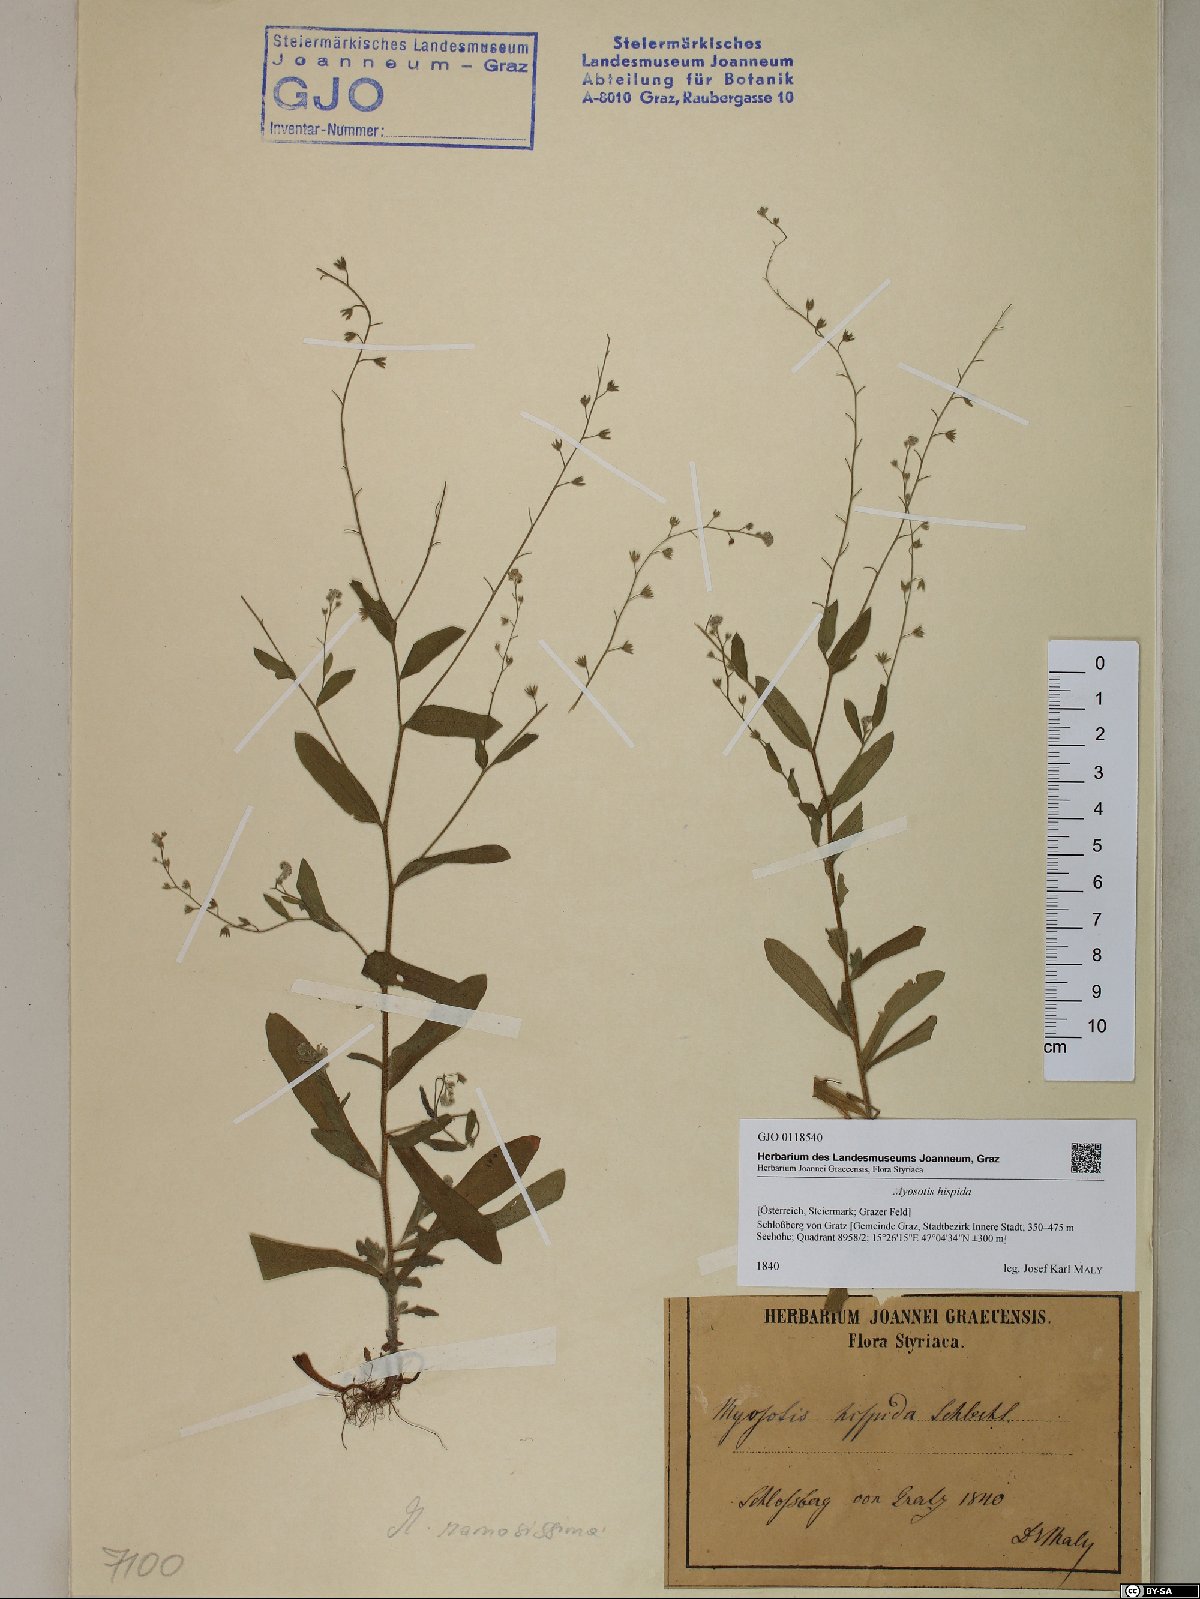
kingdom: Plantae
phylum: Tracheophyta
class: Magnoliopsida
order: Boraginales
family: Boraginaceae
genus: Myosotis
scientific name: Myosotis ramosissima
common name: Early forget-me-not
